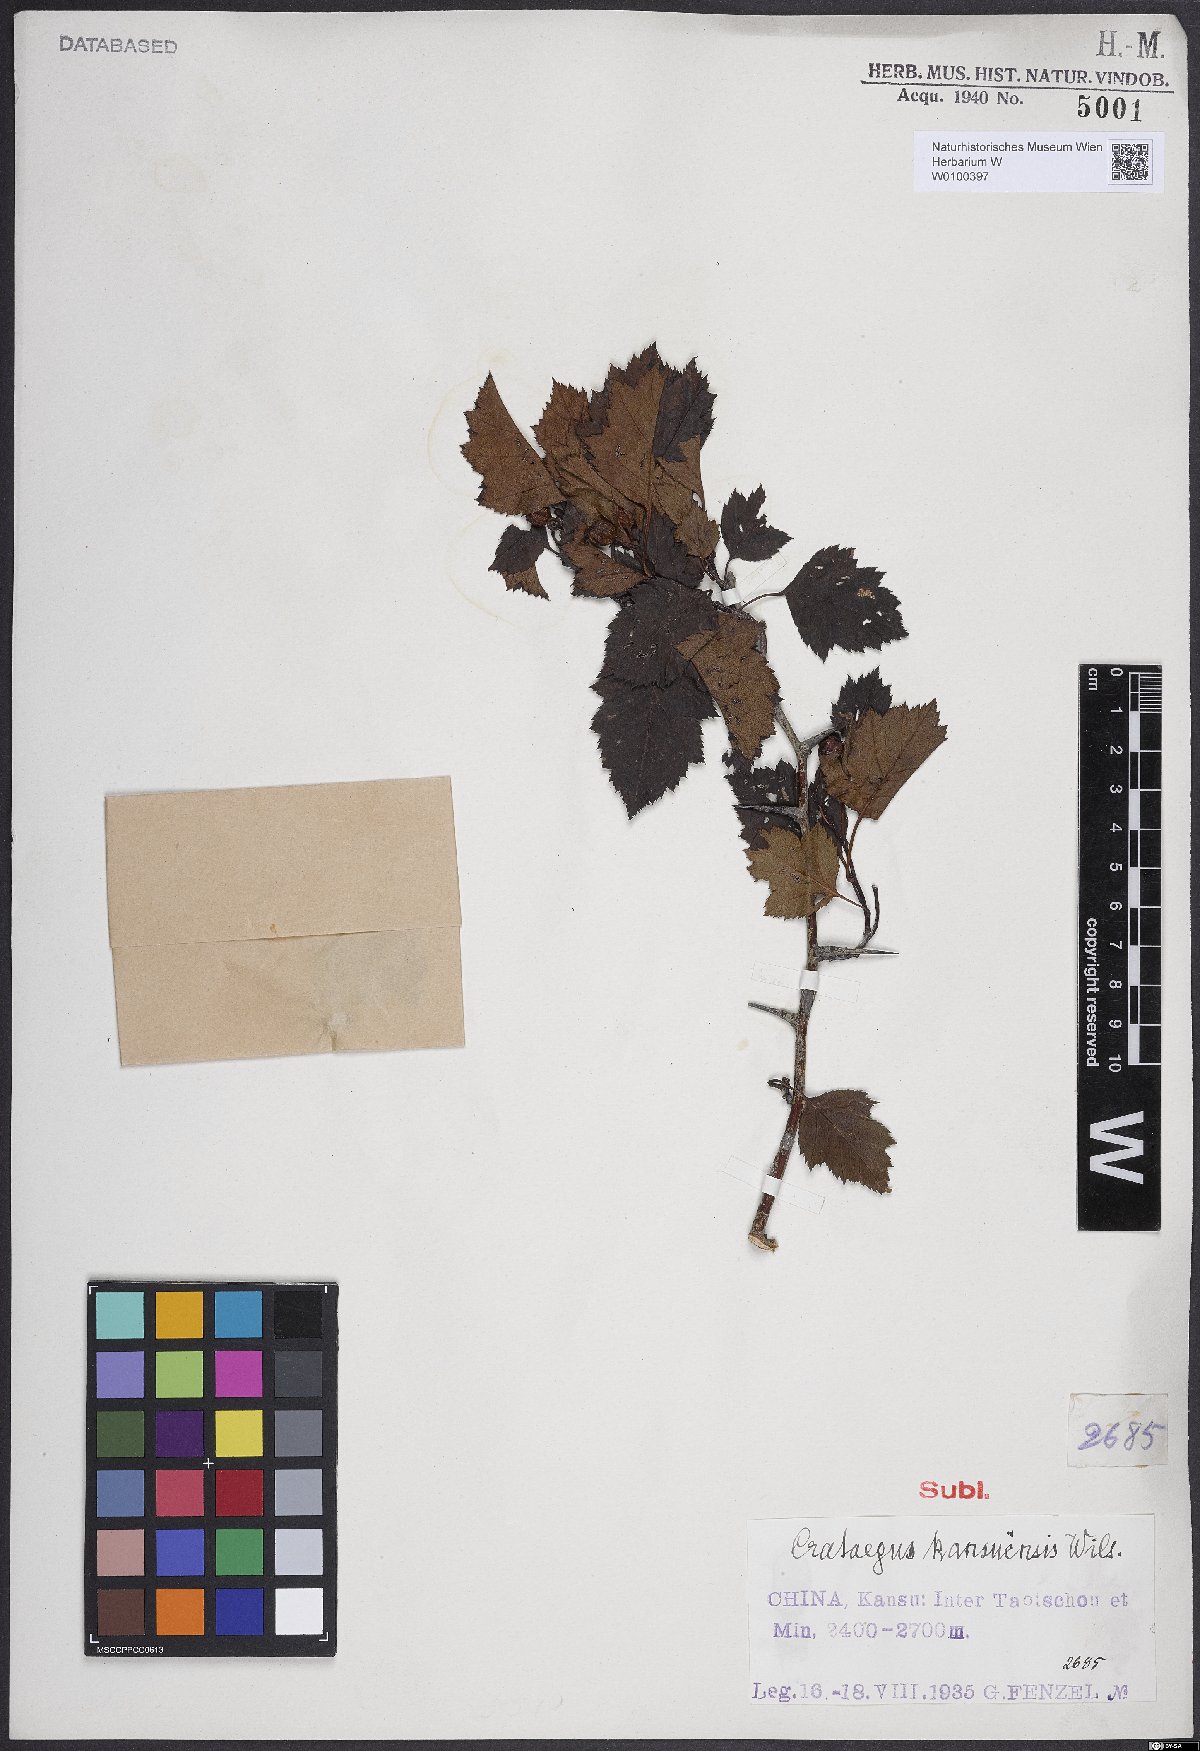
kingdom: Plantae
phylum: Tracheophyta
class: Magnoliopsida
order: Rosales
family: Rosaceae
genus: Crataegus
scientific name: Crataegus kansuensis
